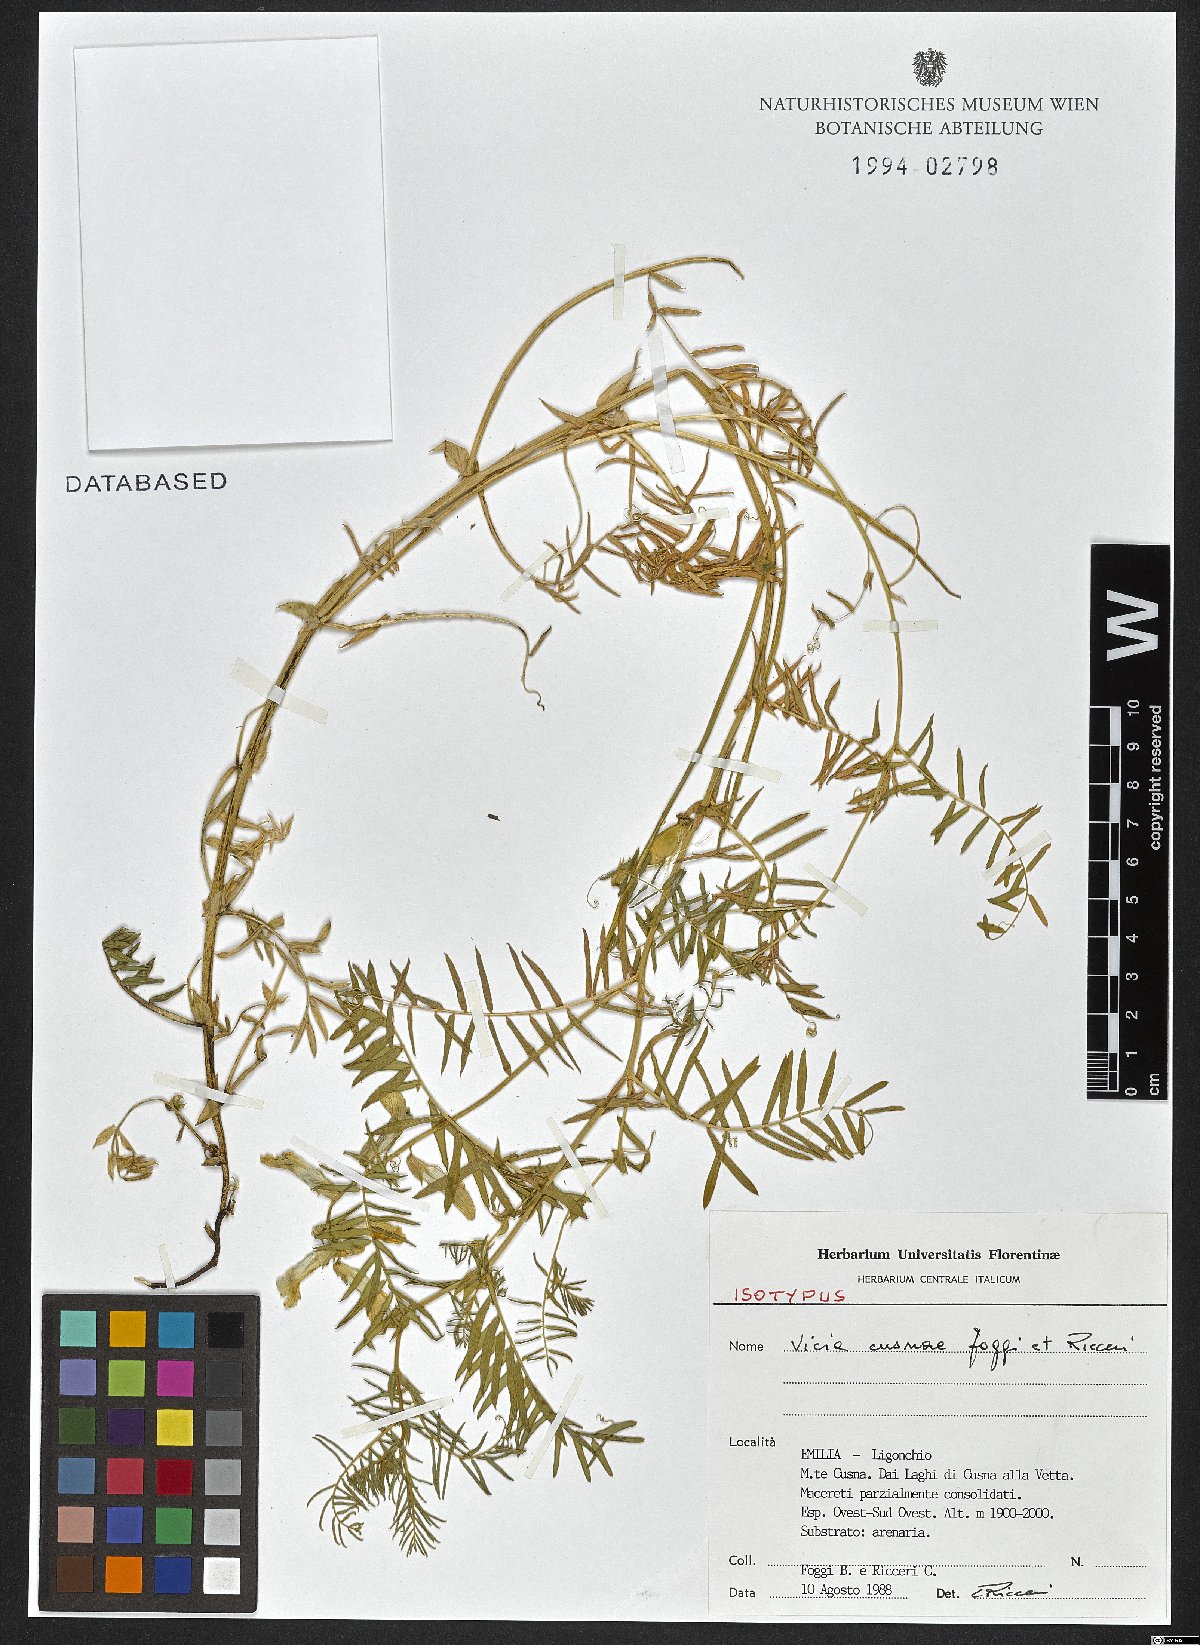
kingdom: Plantae
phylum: Tracheophyta
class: Magnoliopsida
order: Fabales
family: Fabaceae
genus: Vicia
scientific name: Vicia cusnae
